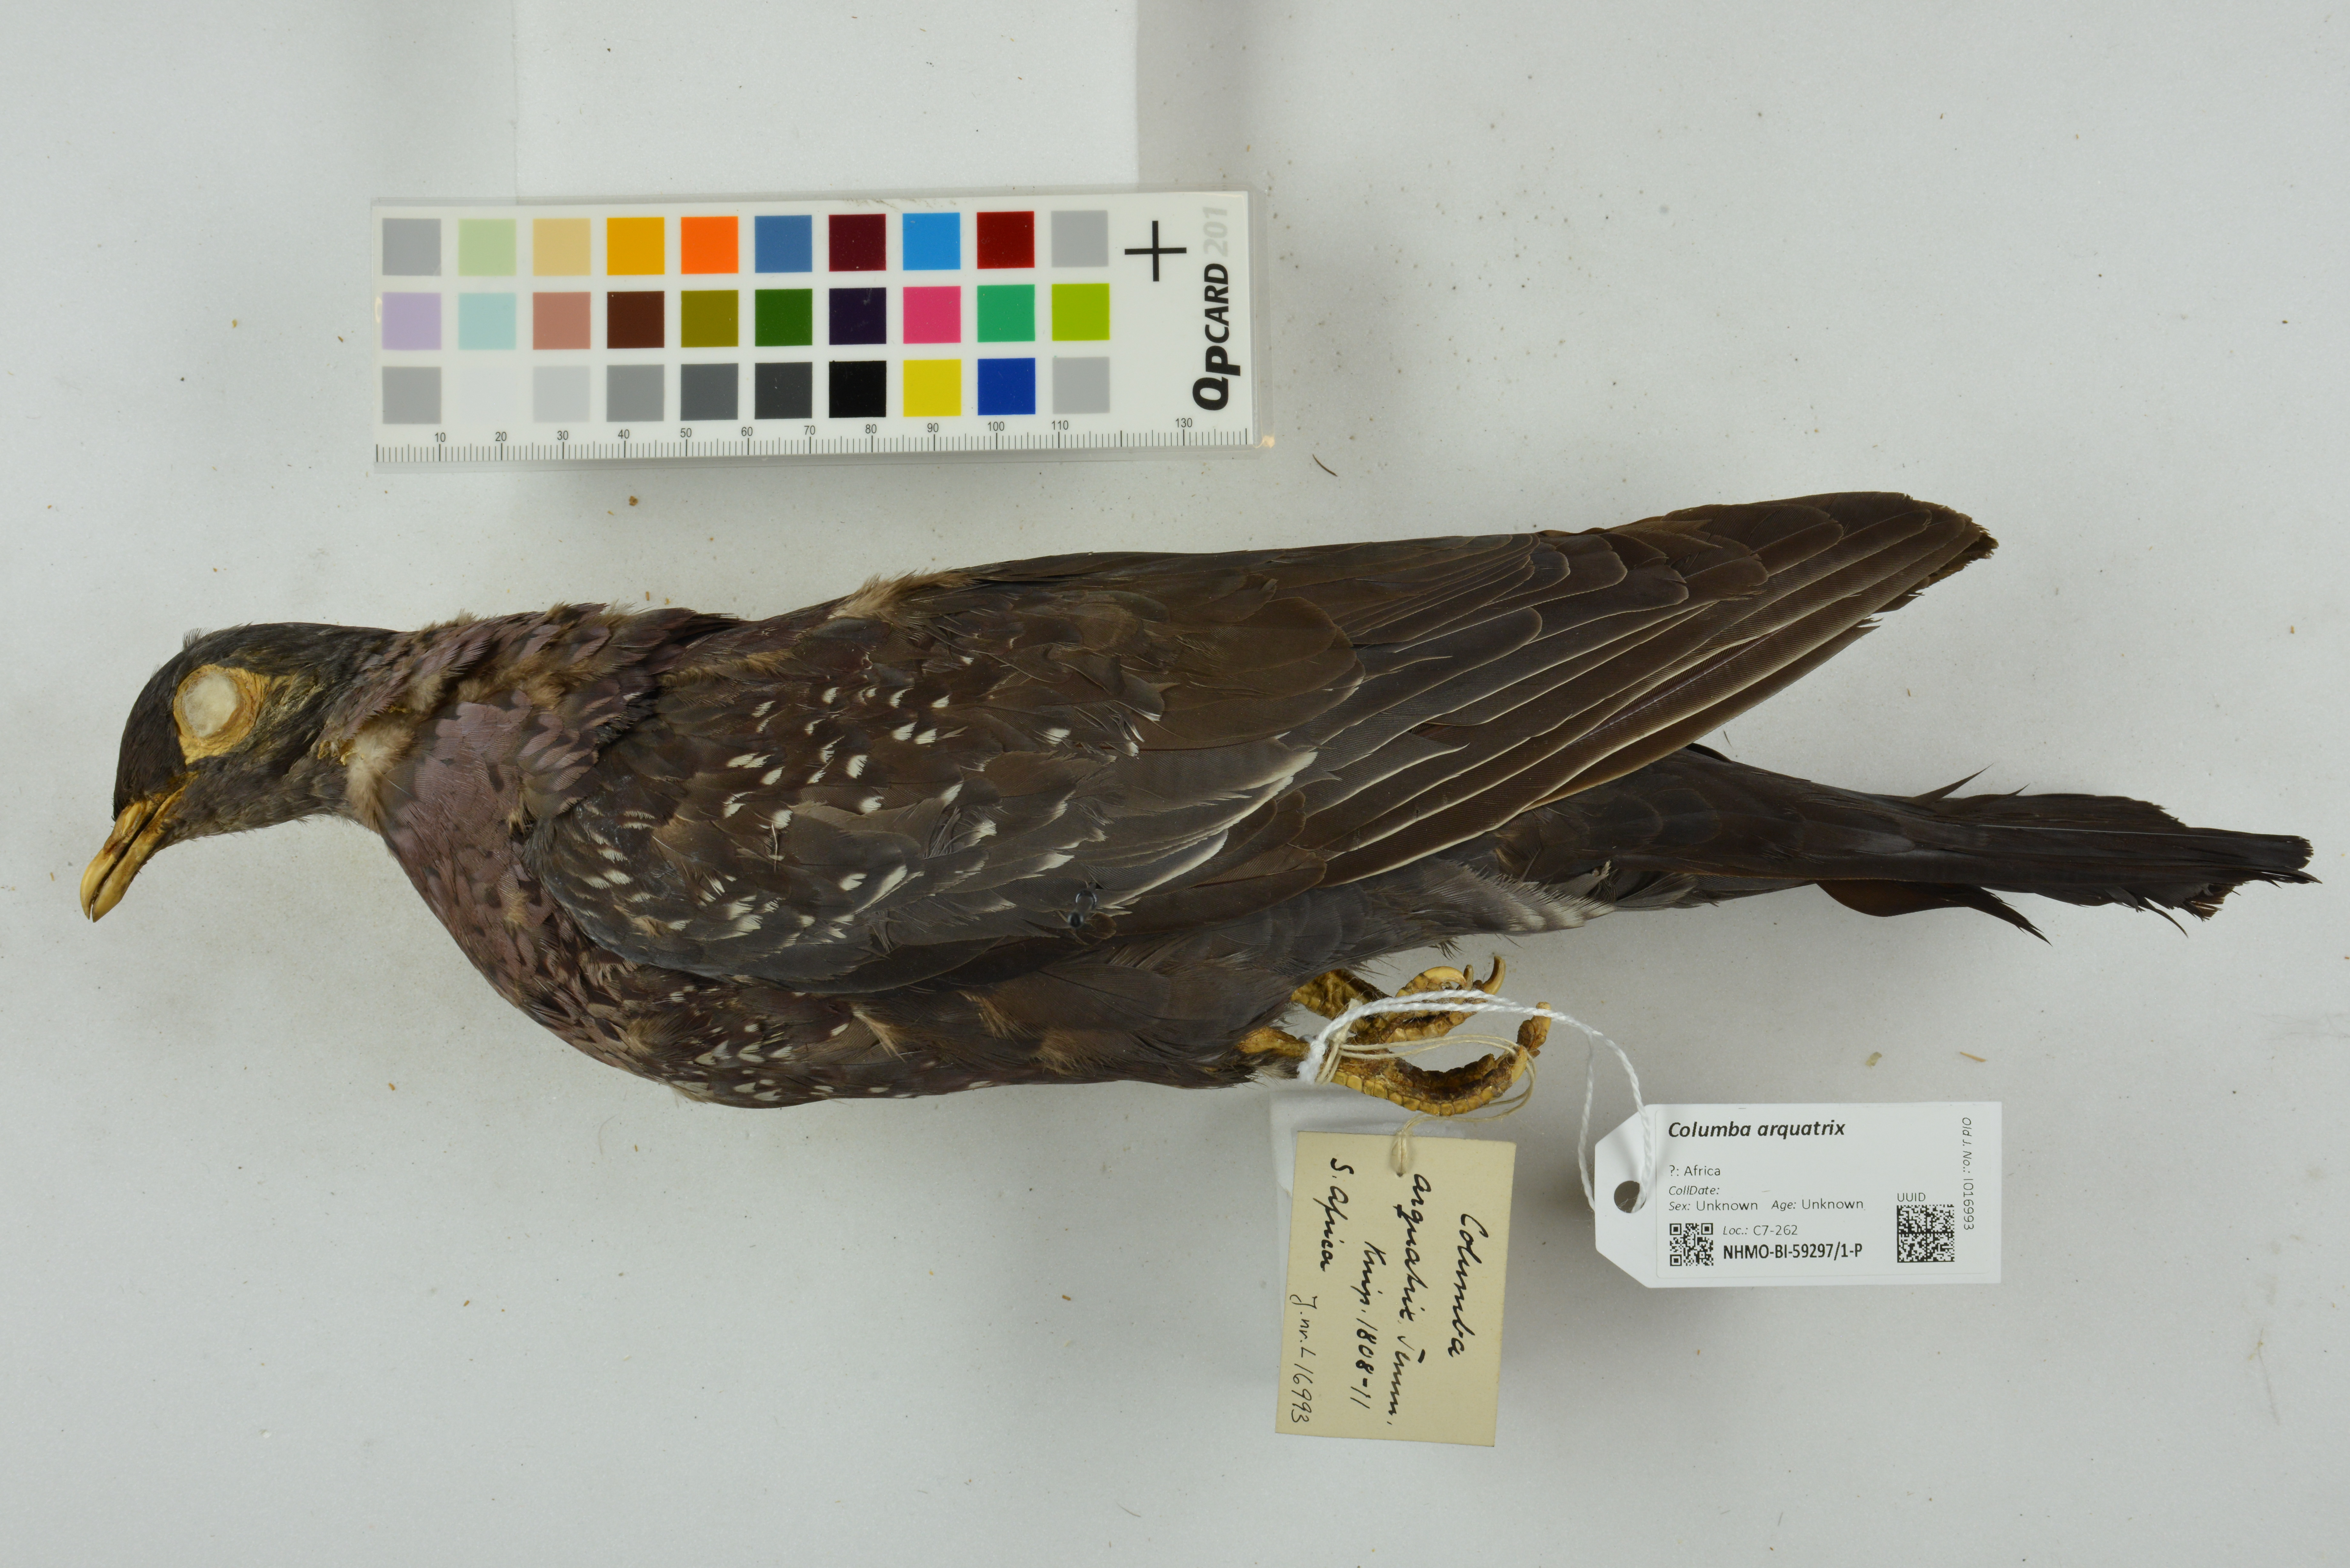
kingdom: Animalia
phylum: Chordata
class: Aves
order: Columbiformes
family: Columbidae
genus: Columba
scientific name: Columba arquatrix
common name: African olive pigeon
